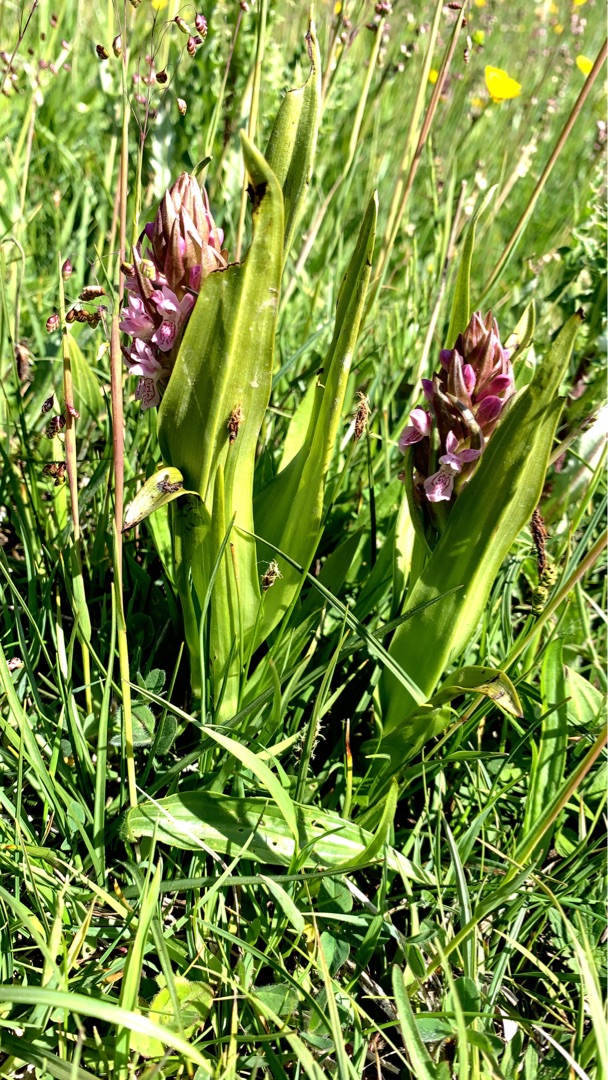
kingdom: Plantae
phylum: Tracheophyta
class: Liliopsida
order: Asparagales
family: Orchidaceae
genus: Dactylorhiza
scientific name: Dactylorhiza incarnata
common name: Kødfarvet gøgeurt
